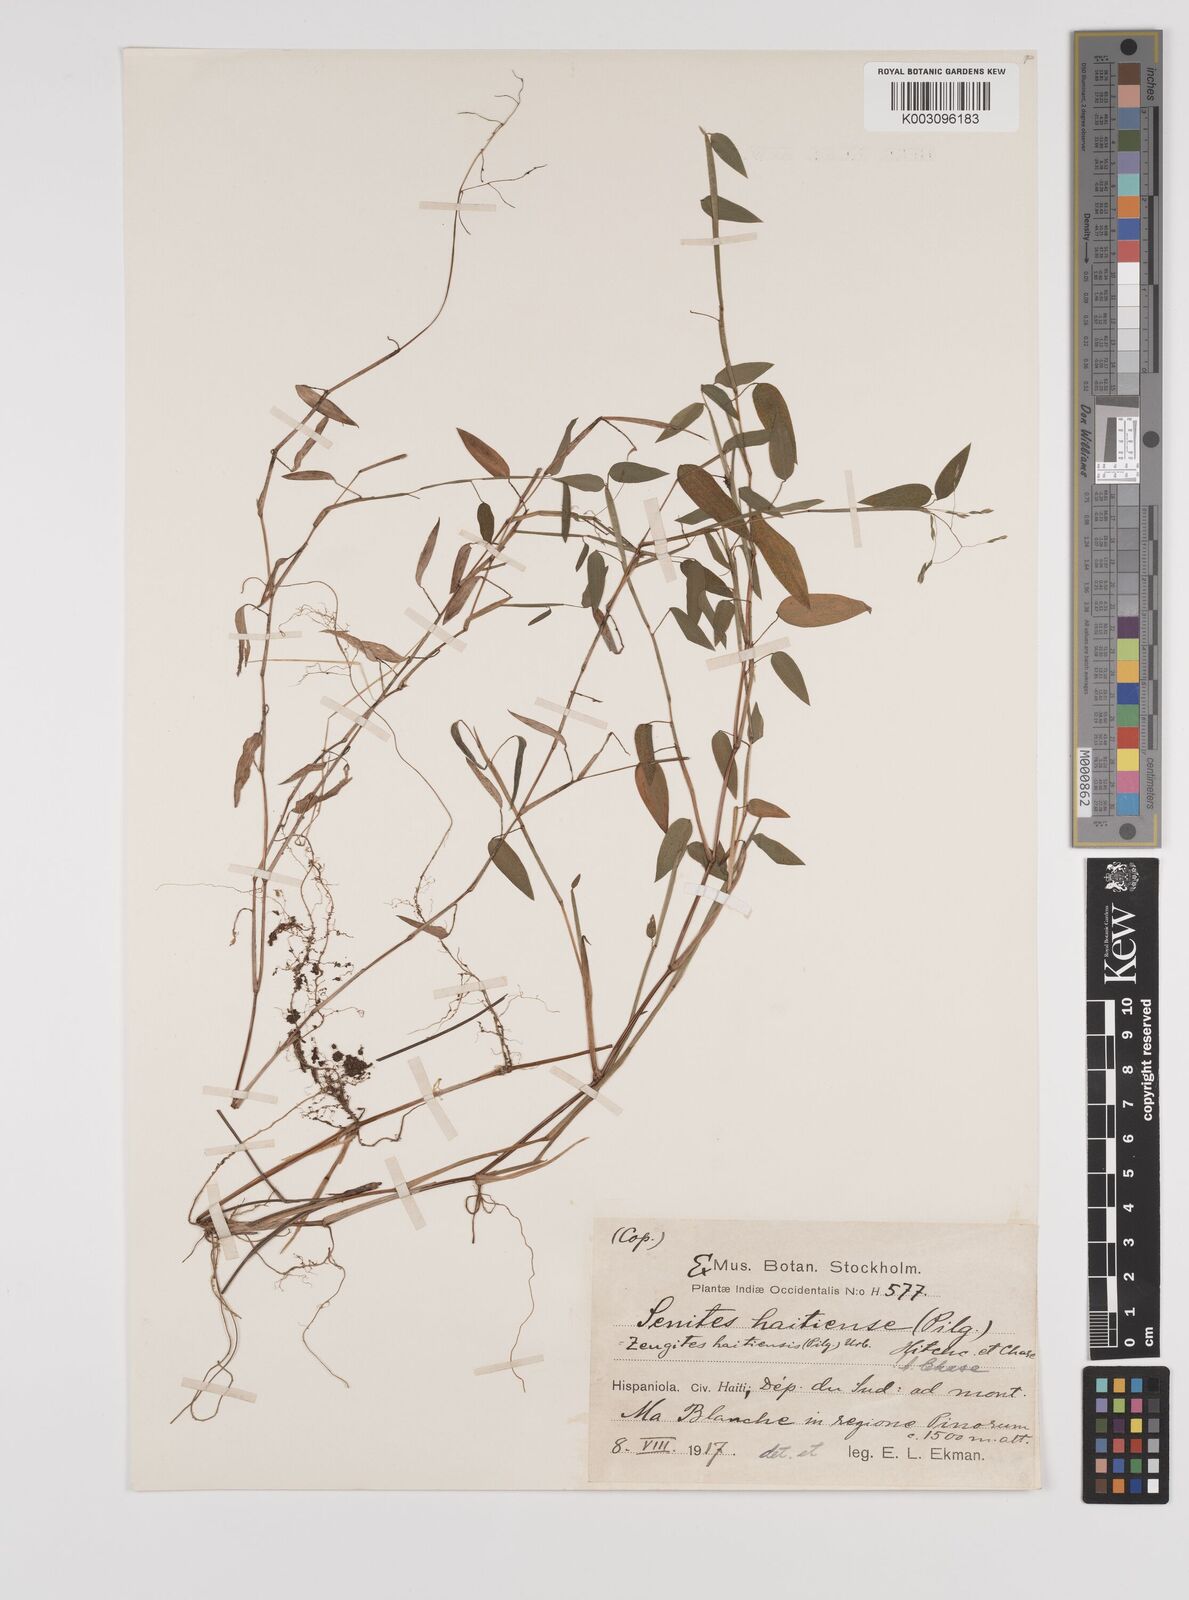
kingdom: Plantae
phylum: Tracheophyta
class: Liliopsida
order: Poales
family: Poaceae
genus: Zeugites
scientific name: Zeugites americanus
